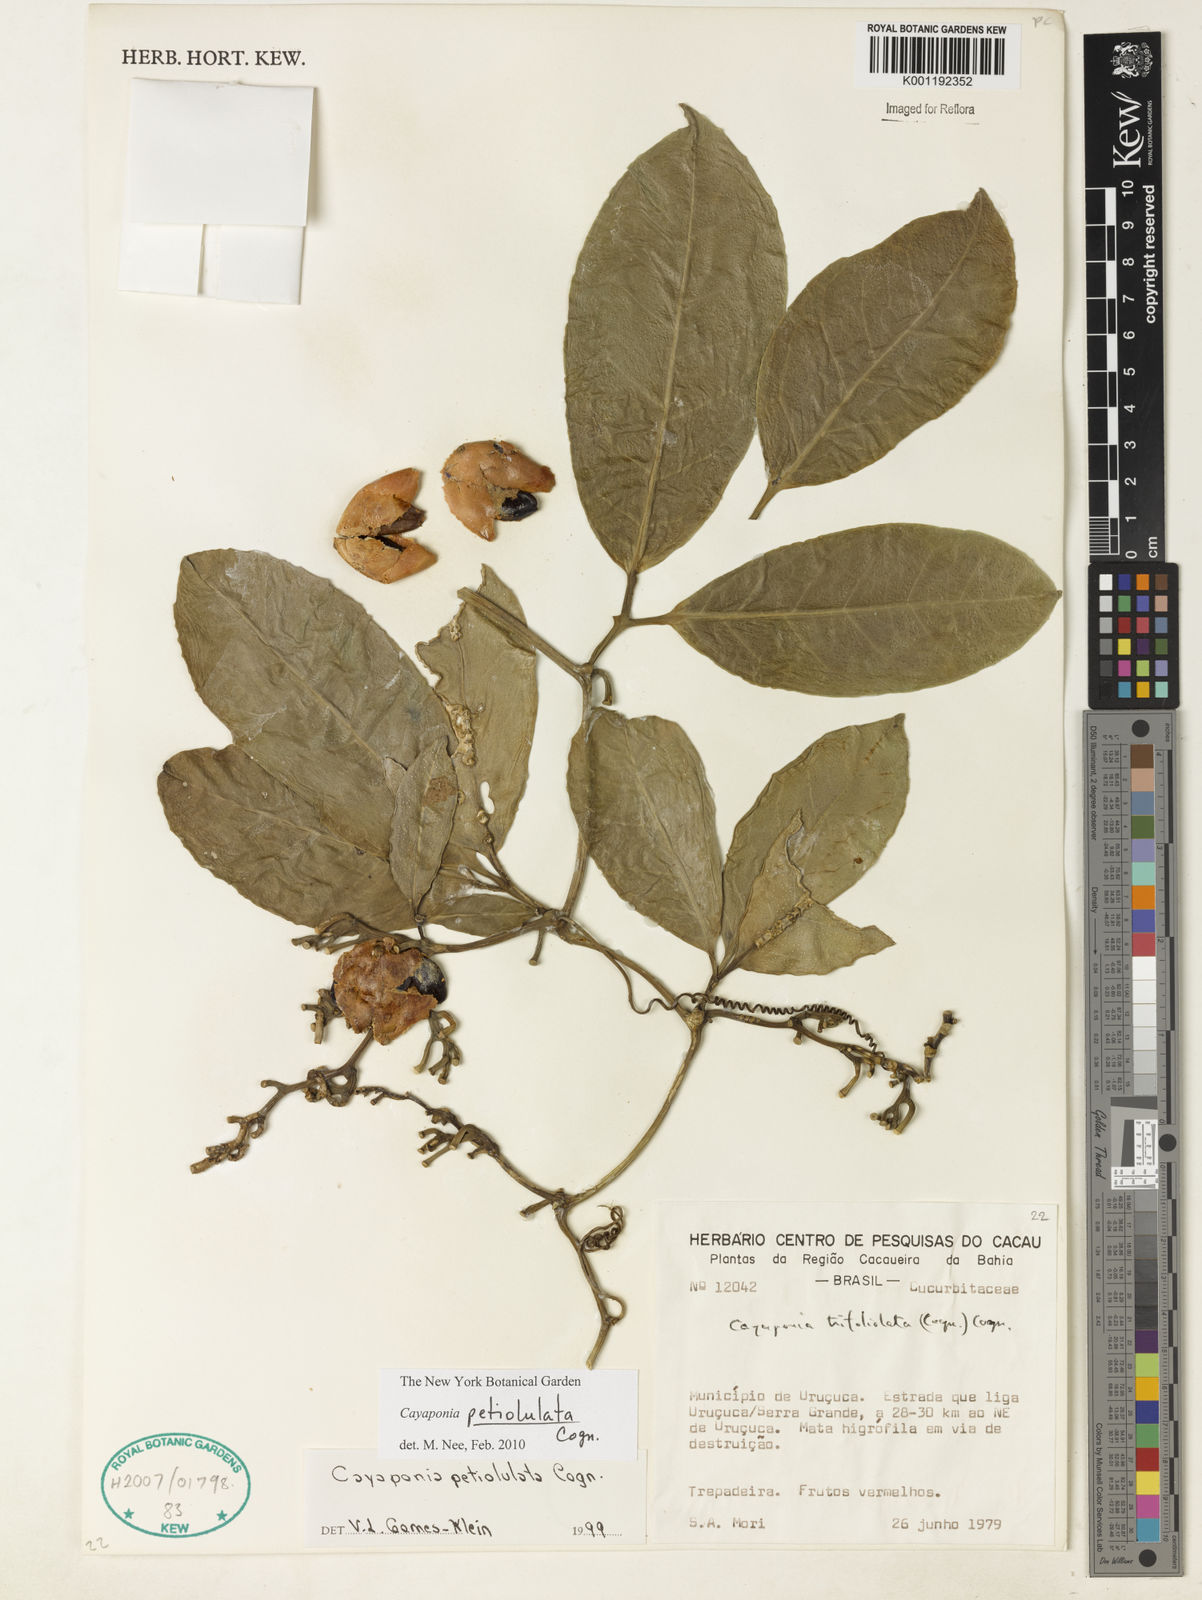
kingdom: Plantae
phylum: Tracheophyta
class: Magnoliopsida
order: Cucurbitales
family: Cucurbitaceae
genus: Cayaponia
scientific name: Cayaponia petiolulata
